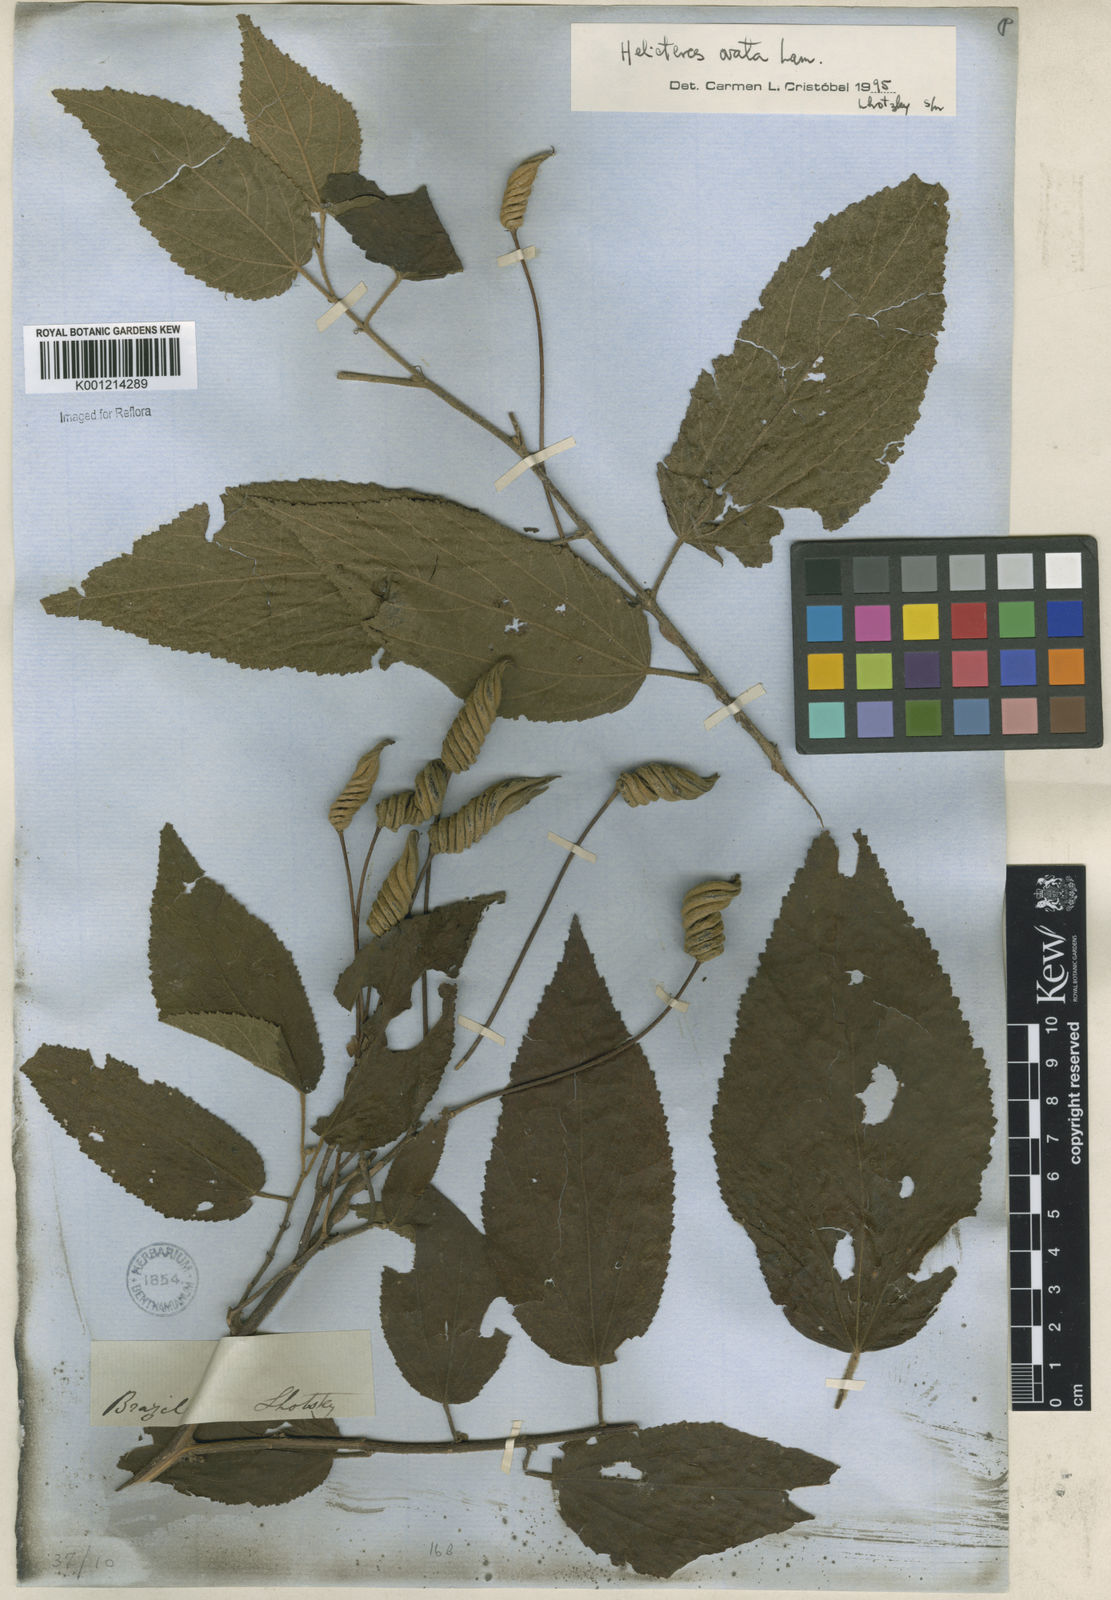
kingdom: Plantae
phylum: Tracheophyta
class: Magnoliopsida
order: Malvales
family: Malvaceae
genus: Helicteres
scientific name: Helicteres ovata
